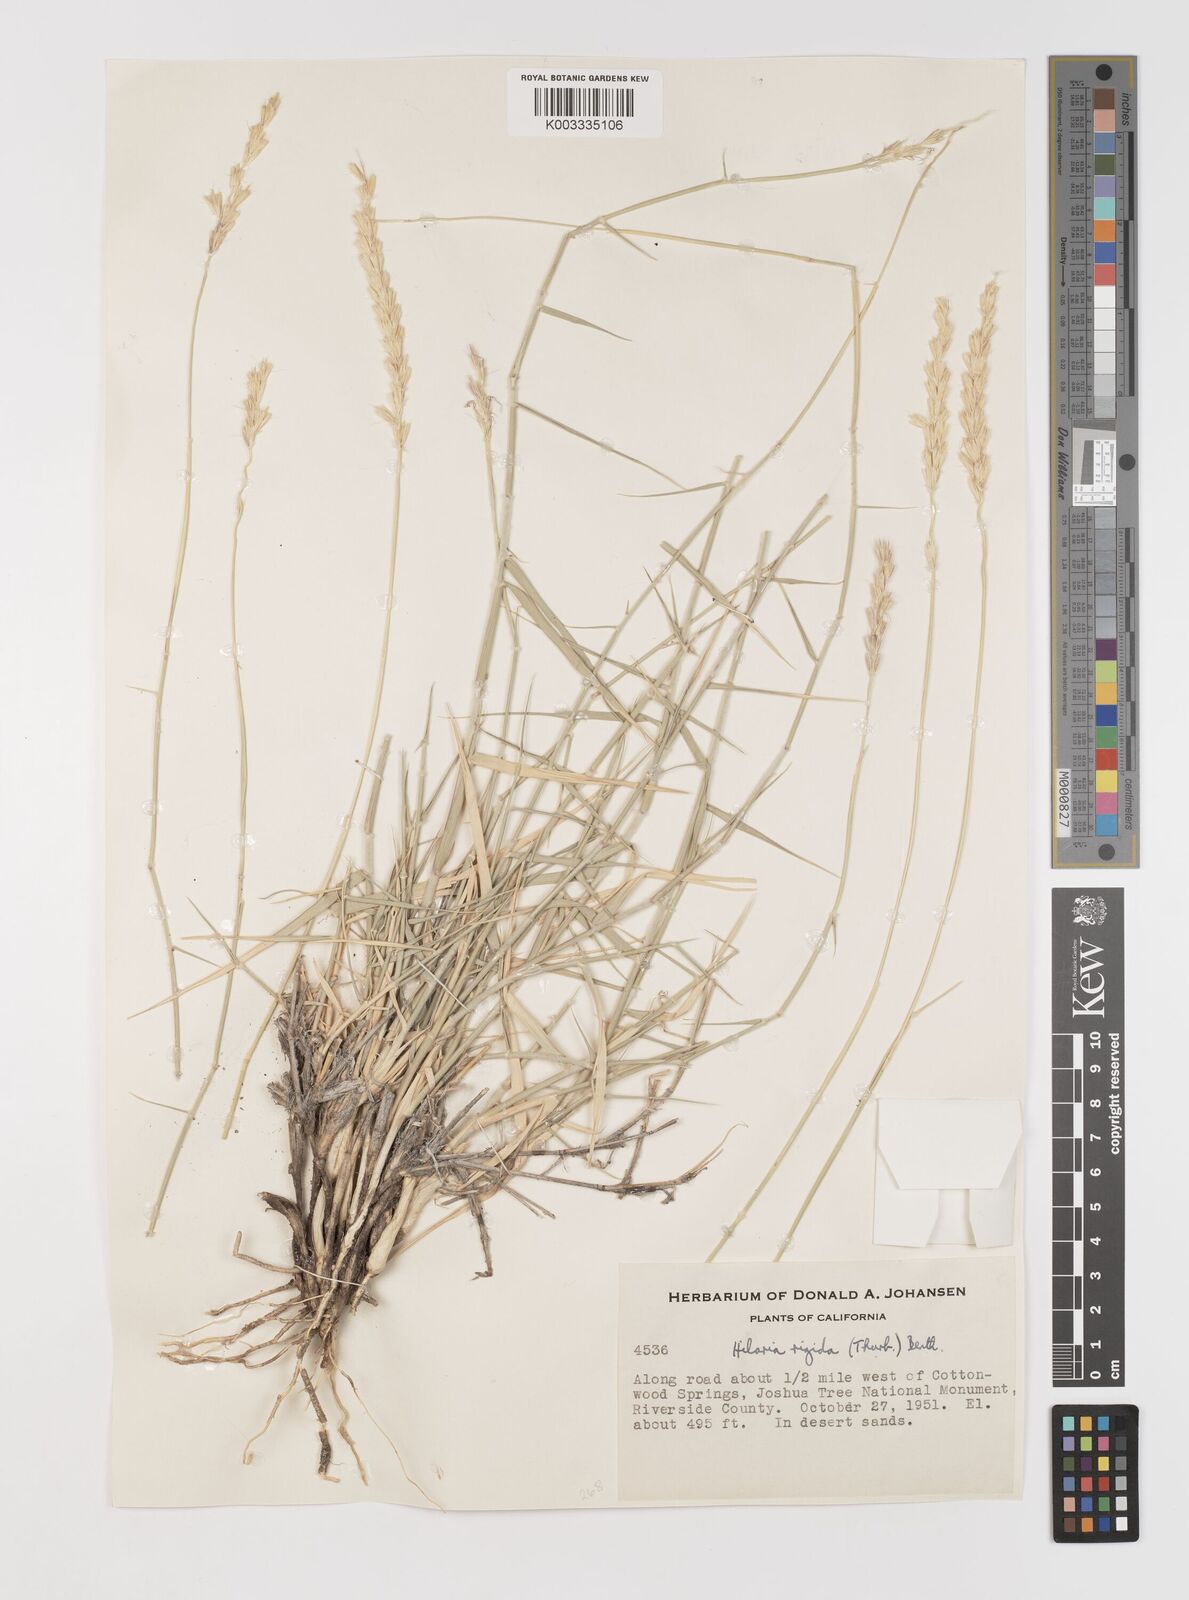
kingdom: Plantae
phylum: Tracheophyta
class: Liliopsida
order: Poales
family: Poaceae
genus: Hilaria
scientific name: Hilaria rigida
